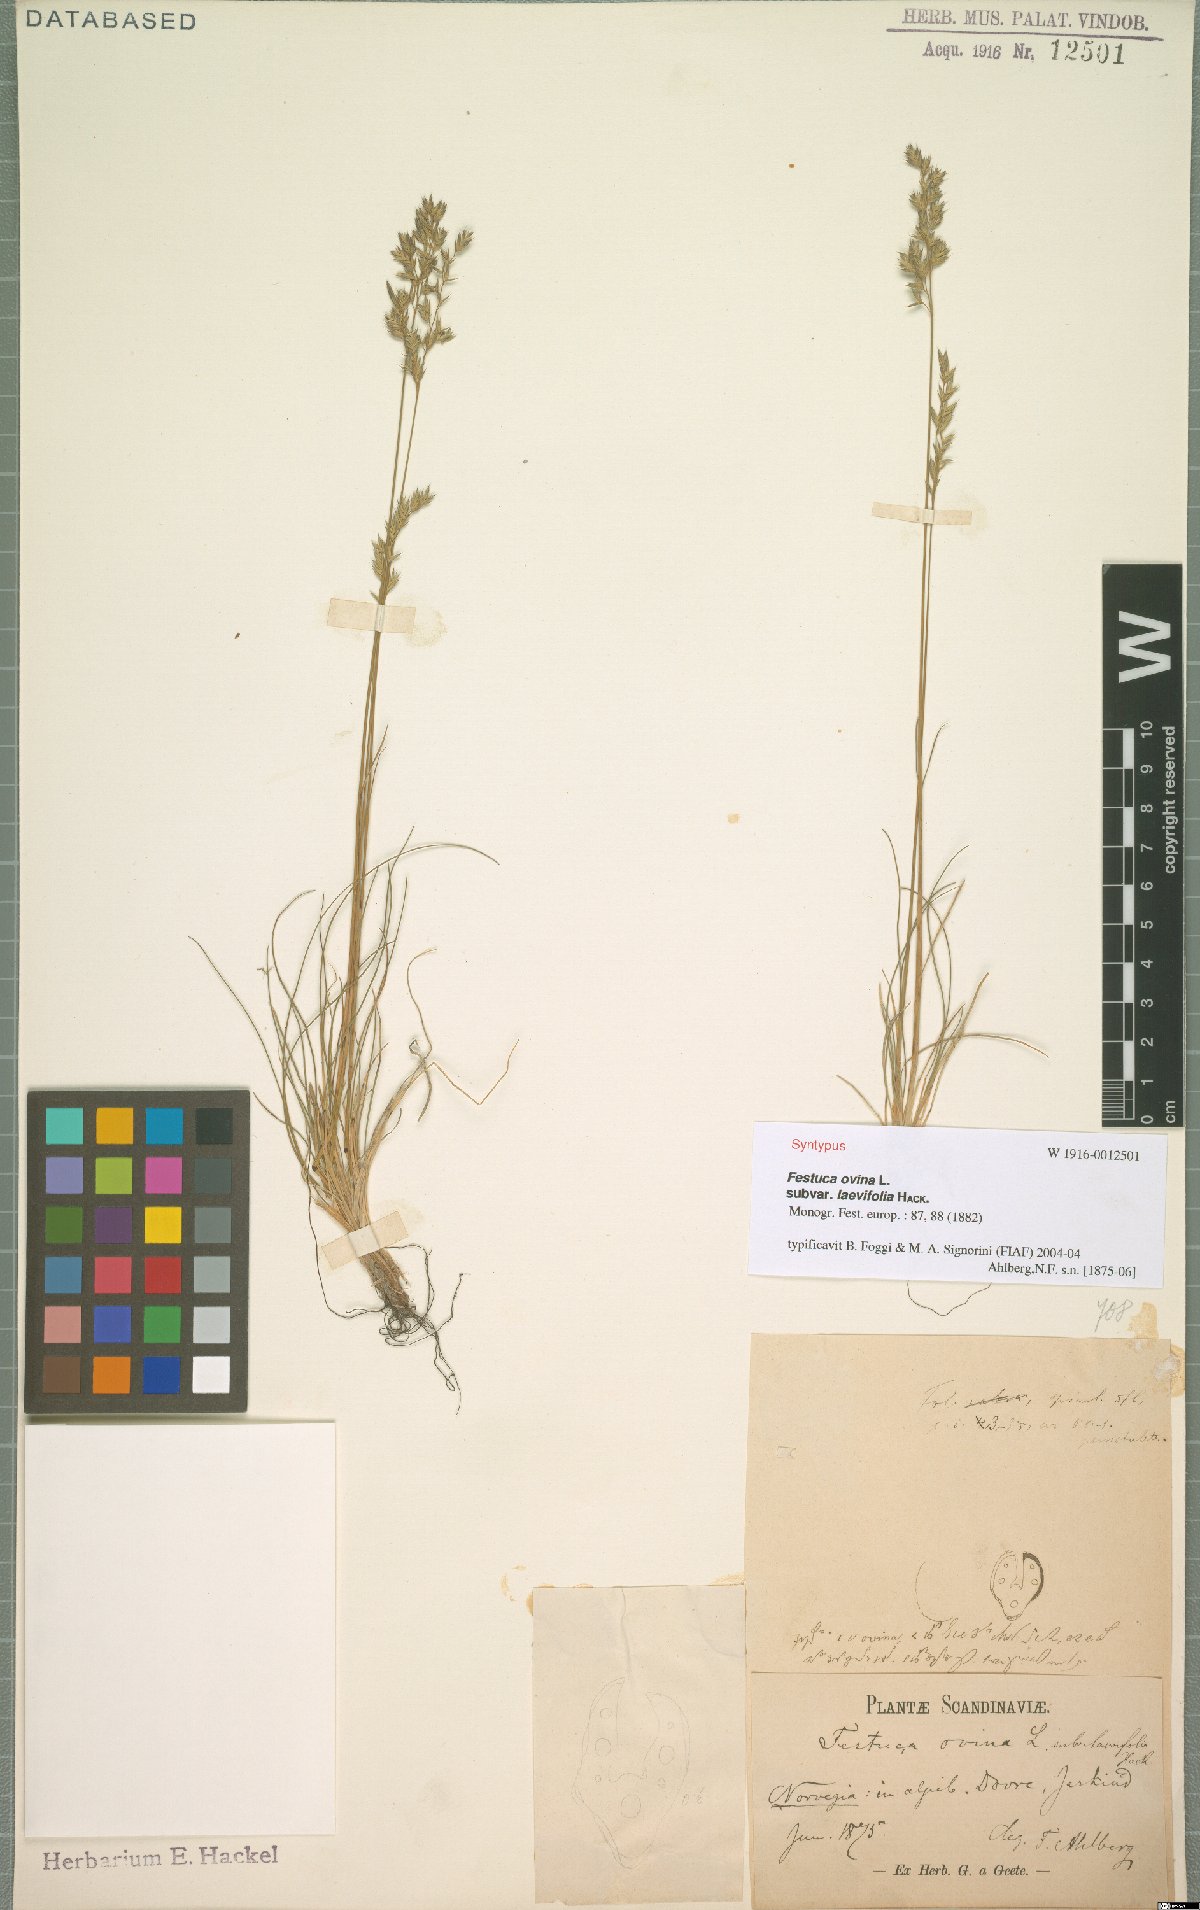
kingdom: Plantae
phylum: Tracheophyta
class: Liliopsida
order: Poales
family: Poaceae
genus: Festuca
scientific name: Festuca ovina
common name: Sheep fescue
